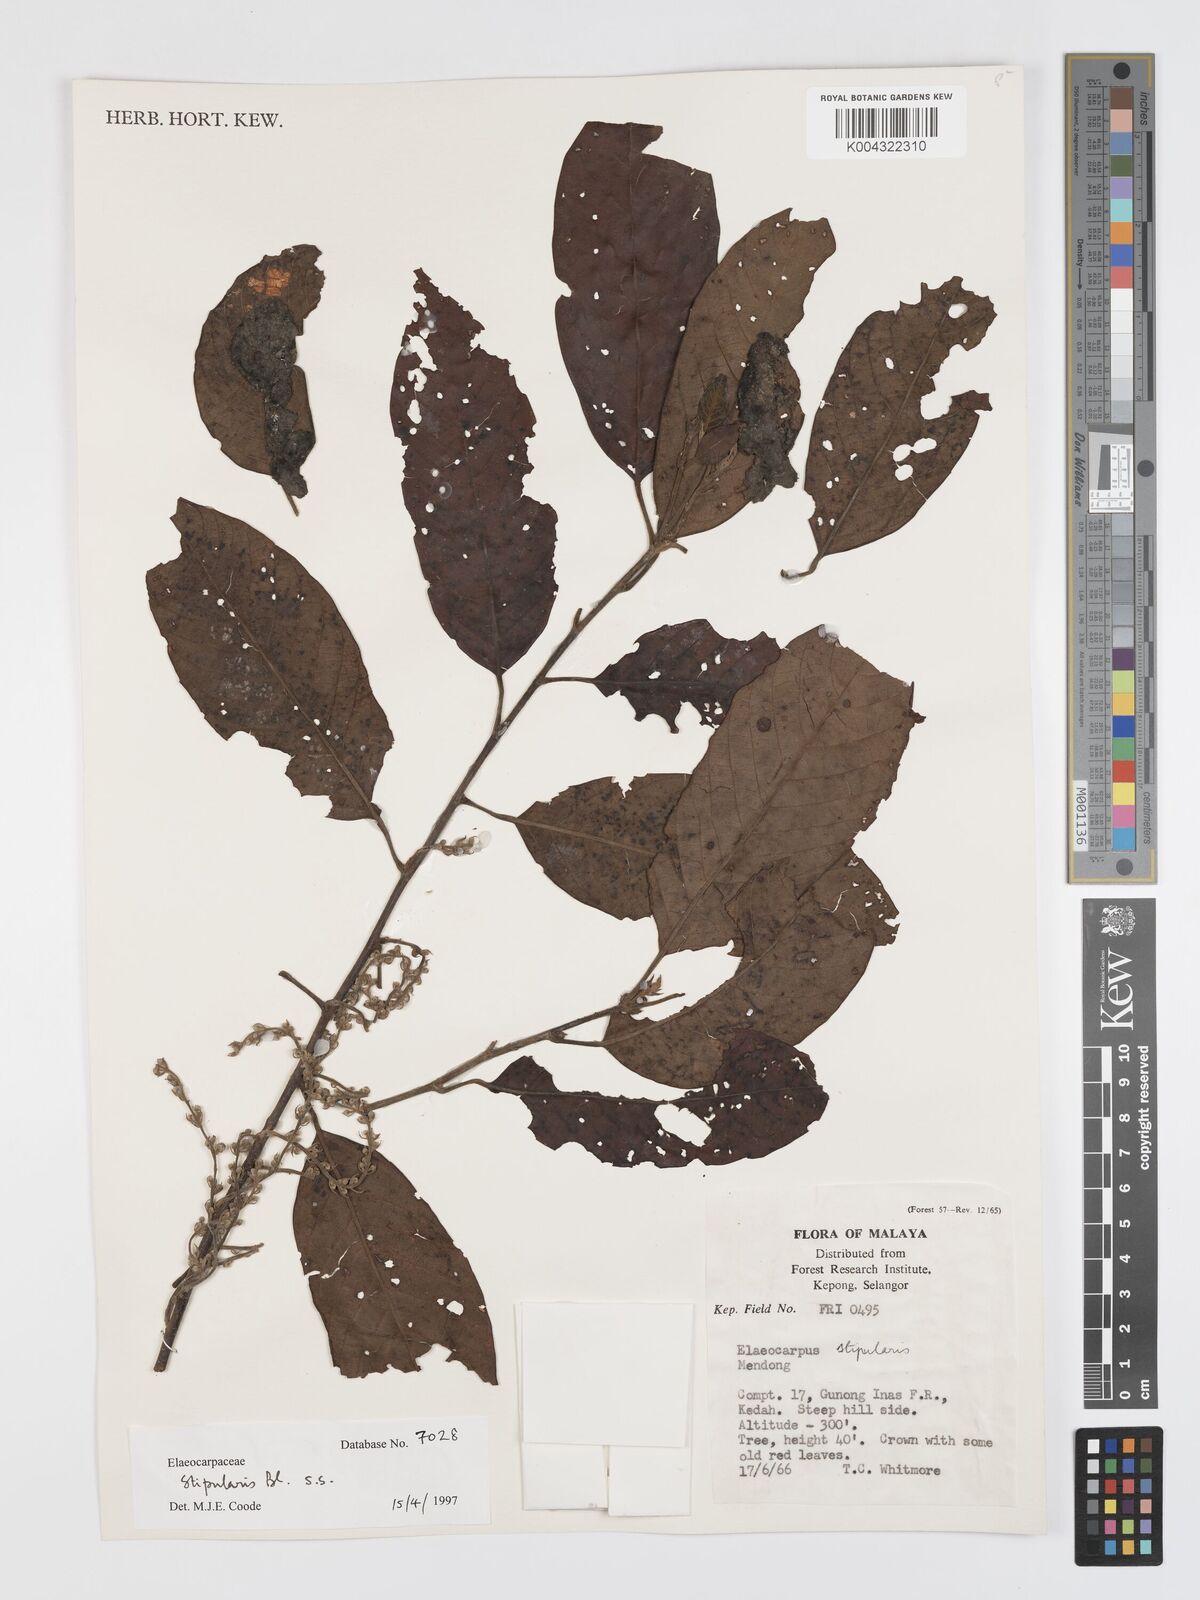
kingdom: Plantae
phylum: Tracheophyta
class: Magnoliopsida
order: Oxalidales
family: Elaeocarpaceae
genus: Elaeocarpus
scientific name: Elaeocarpus stipularis
